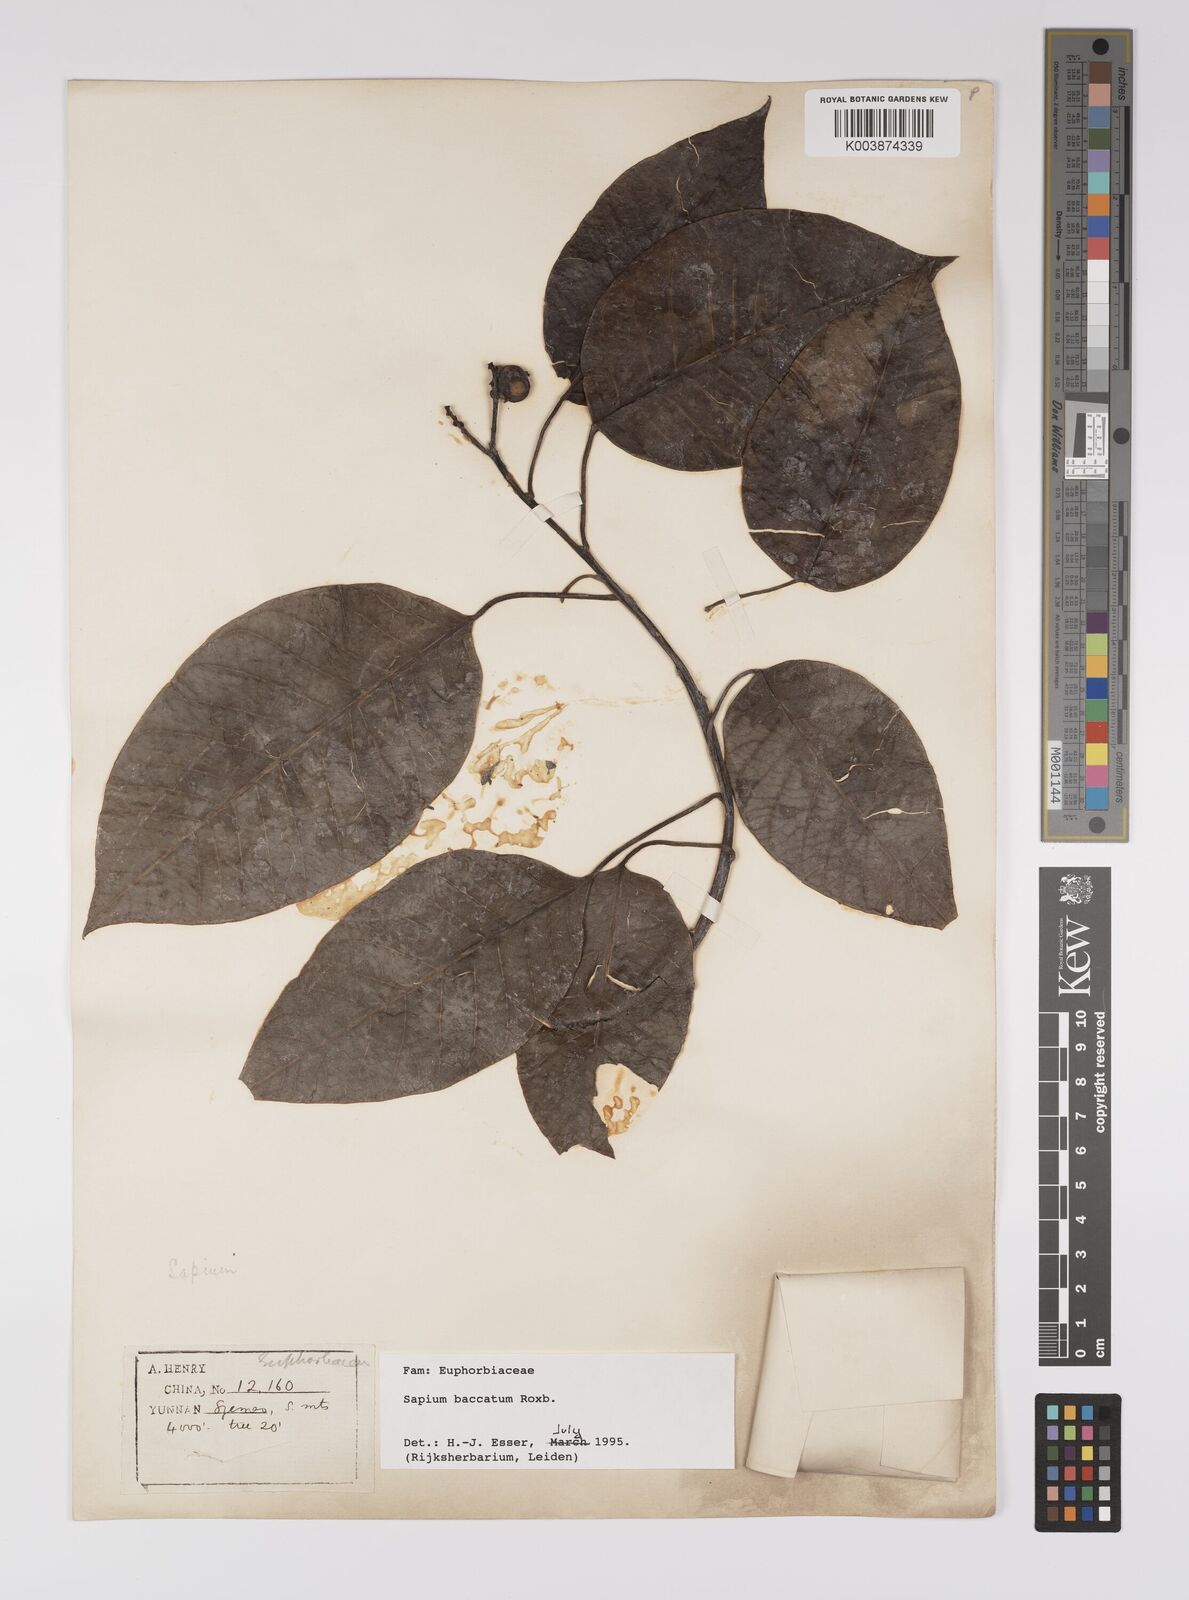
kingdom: Plantae
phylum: Tracheophyta
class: Magnoliopsida
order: Malpighiales
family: Euphorbiaceae
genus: Balakata
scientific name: Balakata baccata
